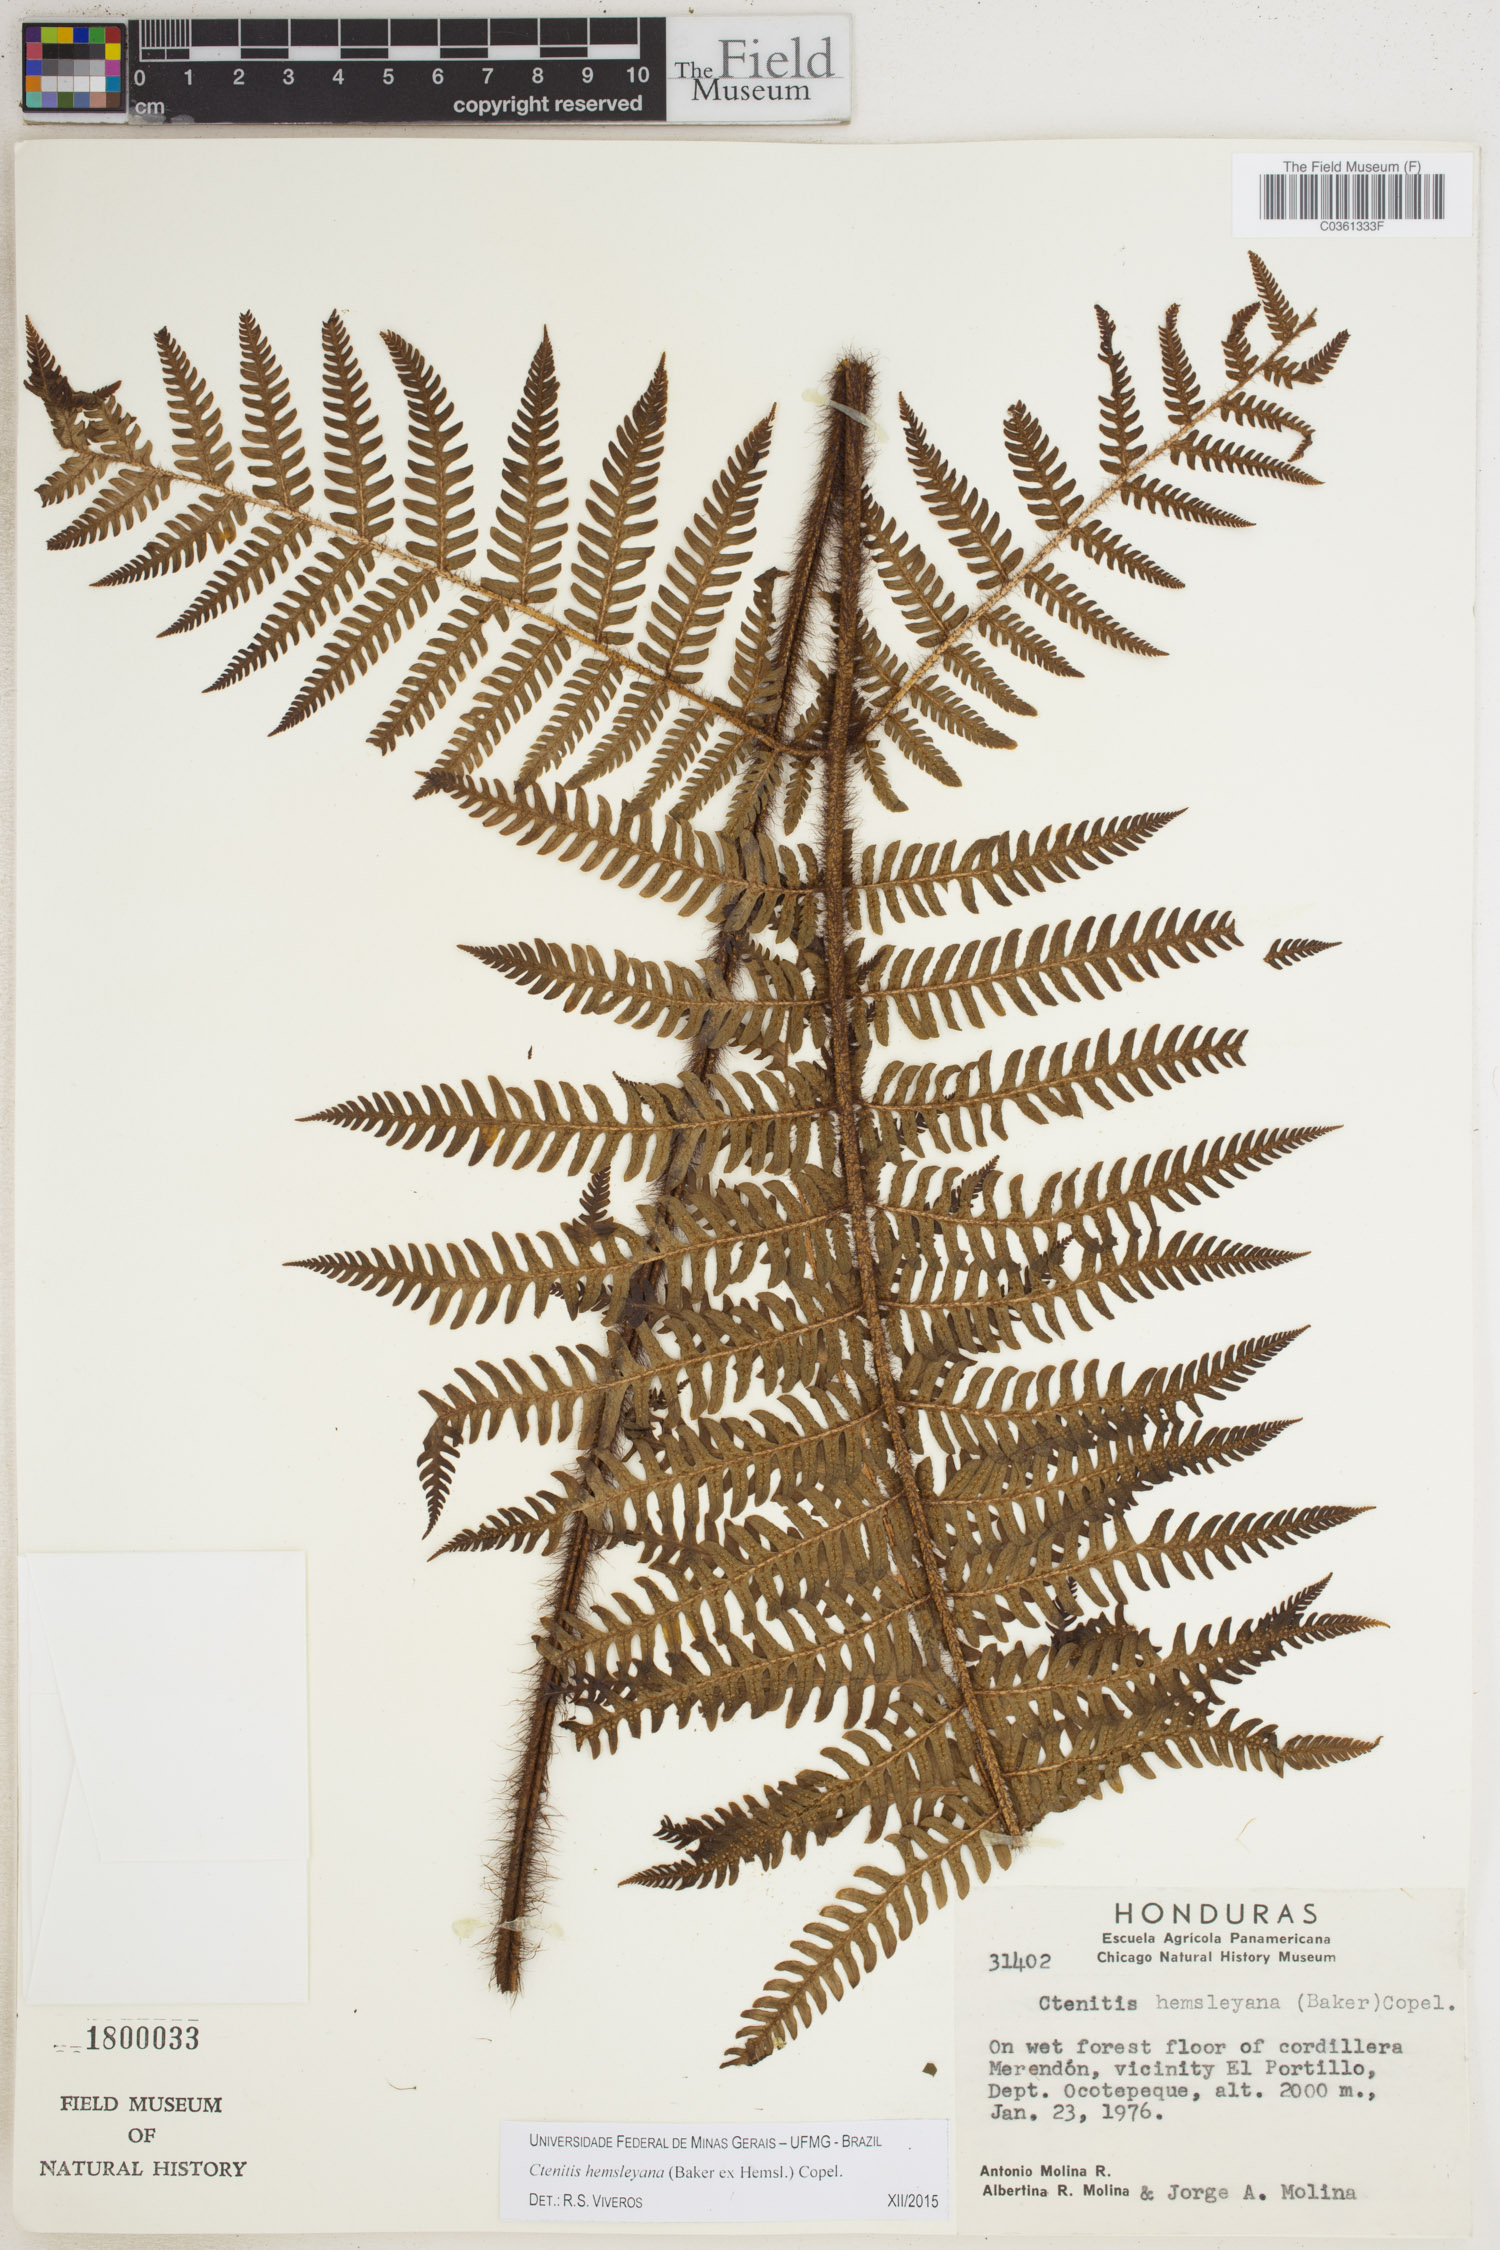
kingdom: Plantae
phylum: Tracheophyta
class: Polypodiopsida
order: Polypodiales
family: Dryopteridaceae
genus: Ctenitis
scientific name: Ctenitis hemsleyana
